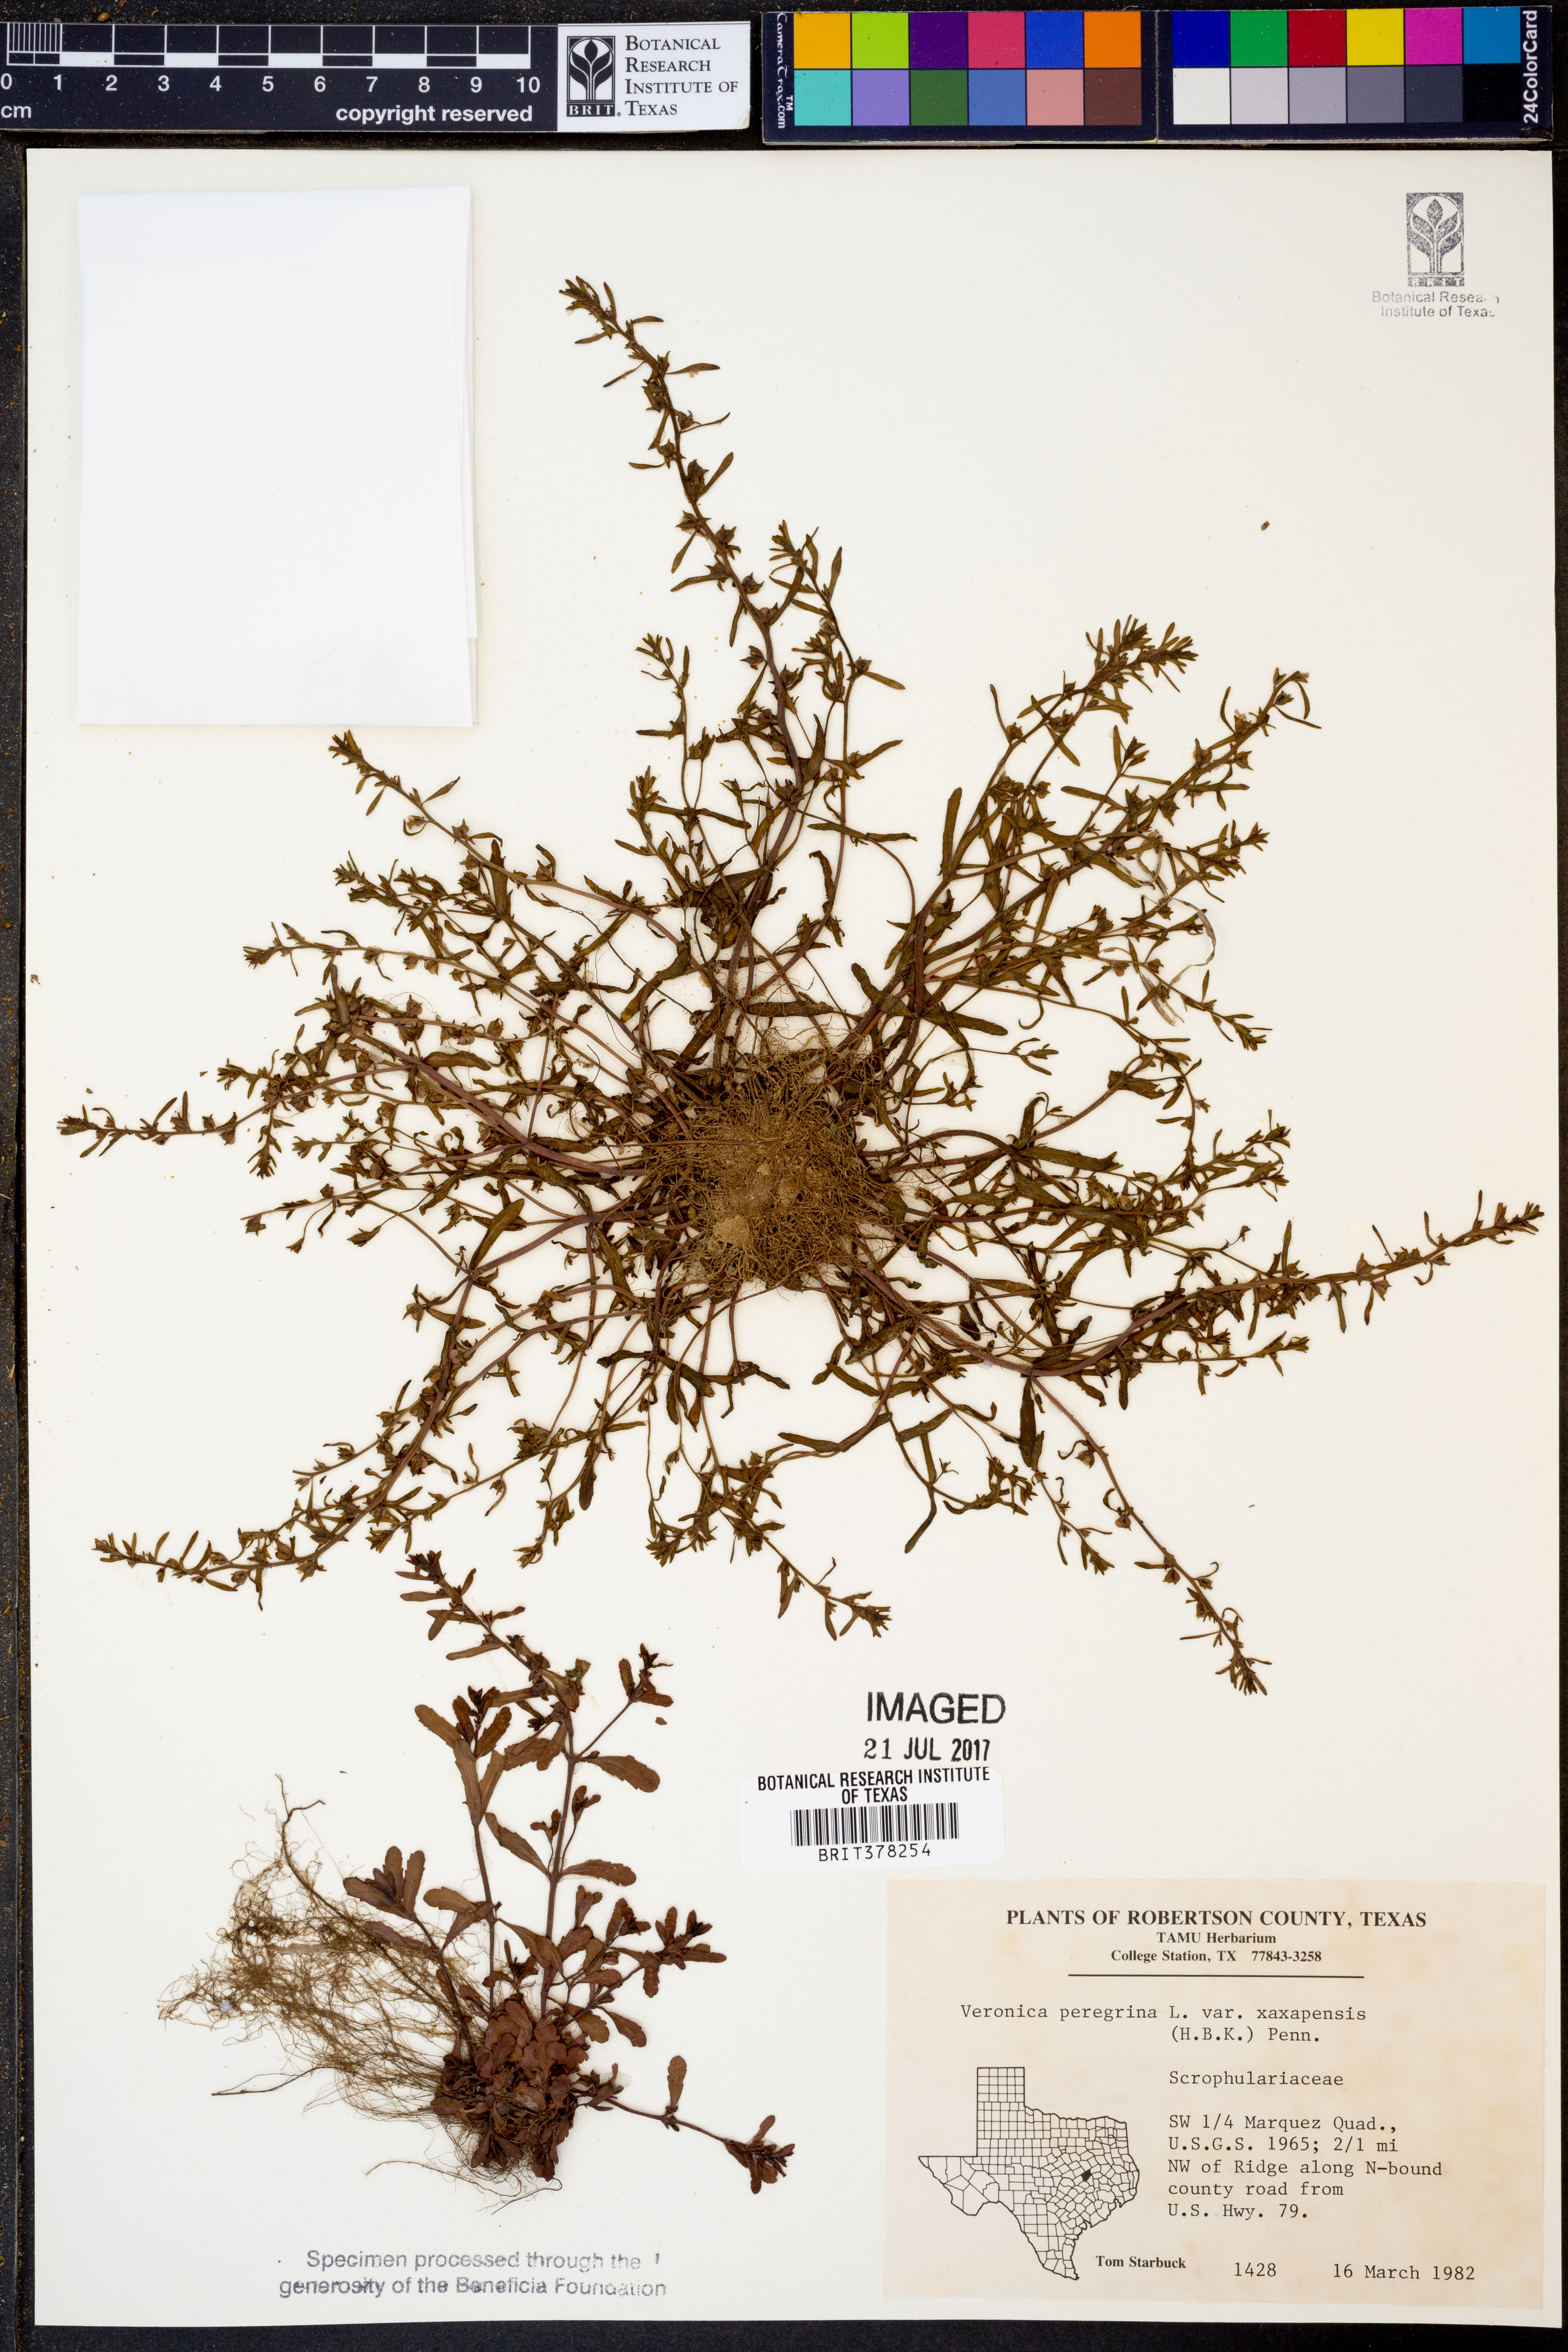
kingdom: Plantae
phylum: Tracheophyta
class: Magnoliopsida
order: Lamiales
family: Plantaginaceae
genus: Veronica
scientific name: Veronica peregrina
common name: Neckweed
